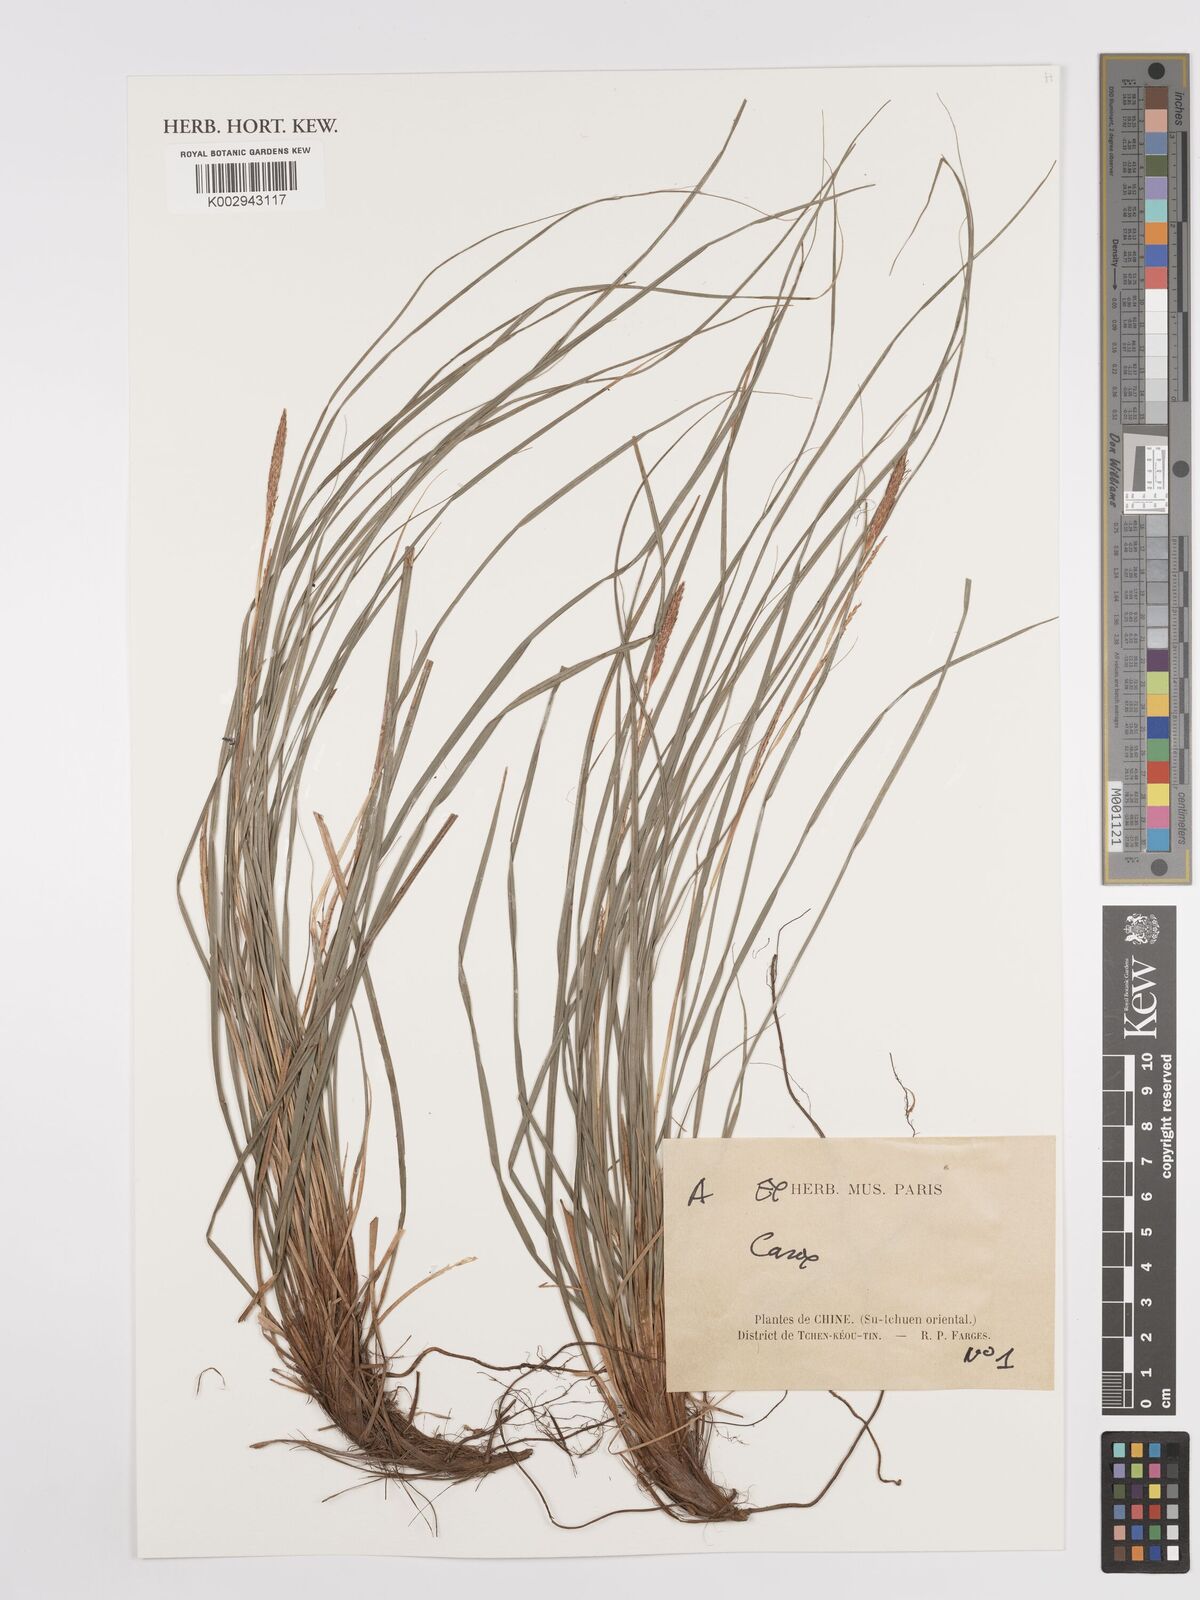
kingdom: Plantae
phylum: Tracheophyta
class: Liliopsida
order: Poales
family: Cyperaceae
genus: Carex
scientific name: Carex
